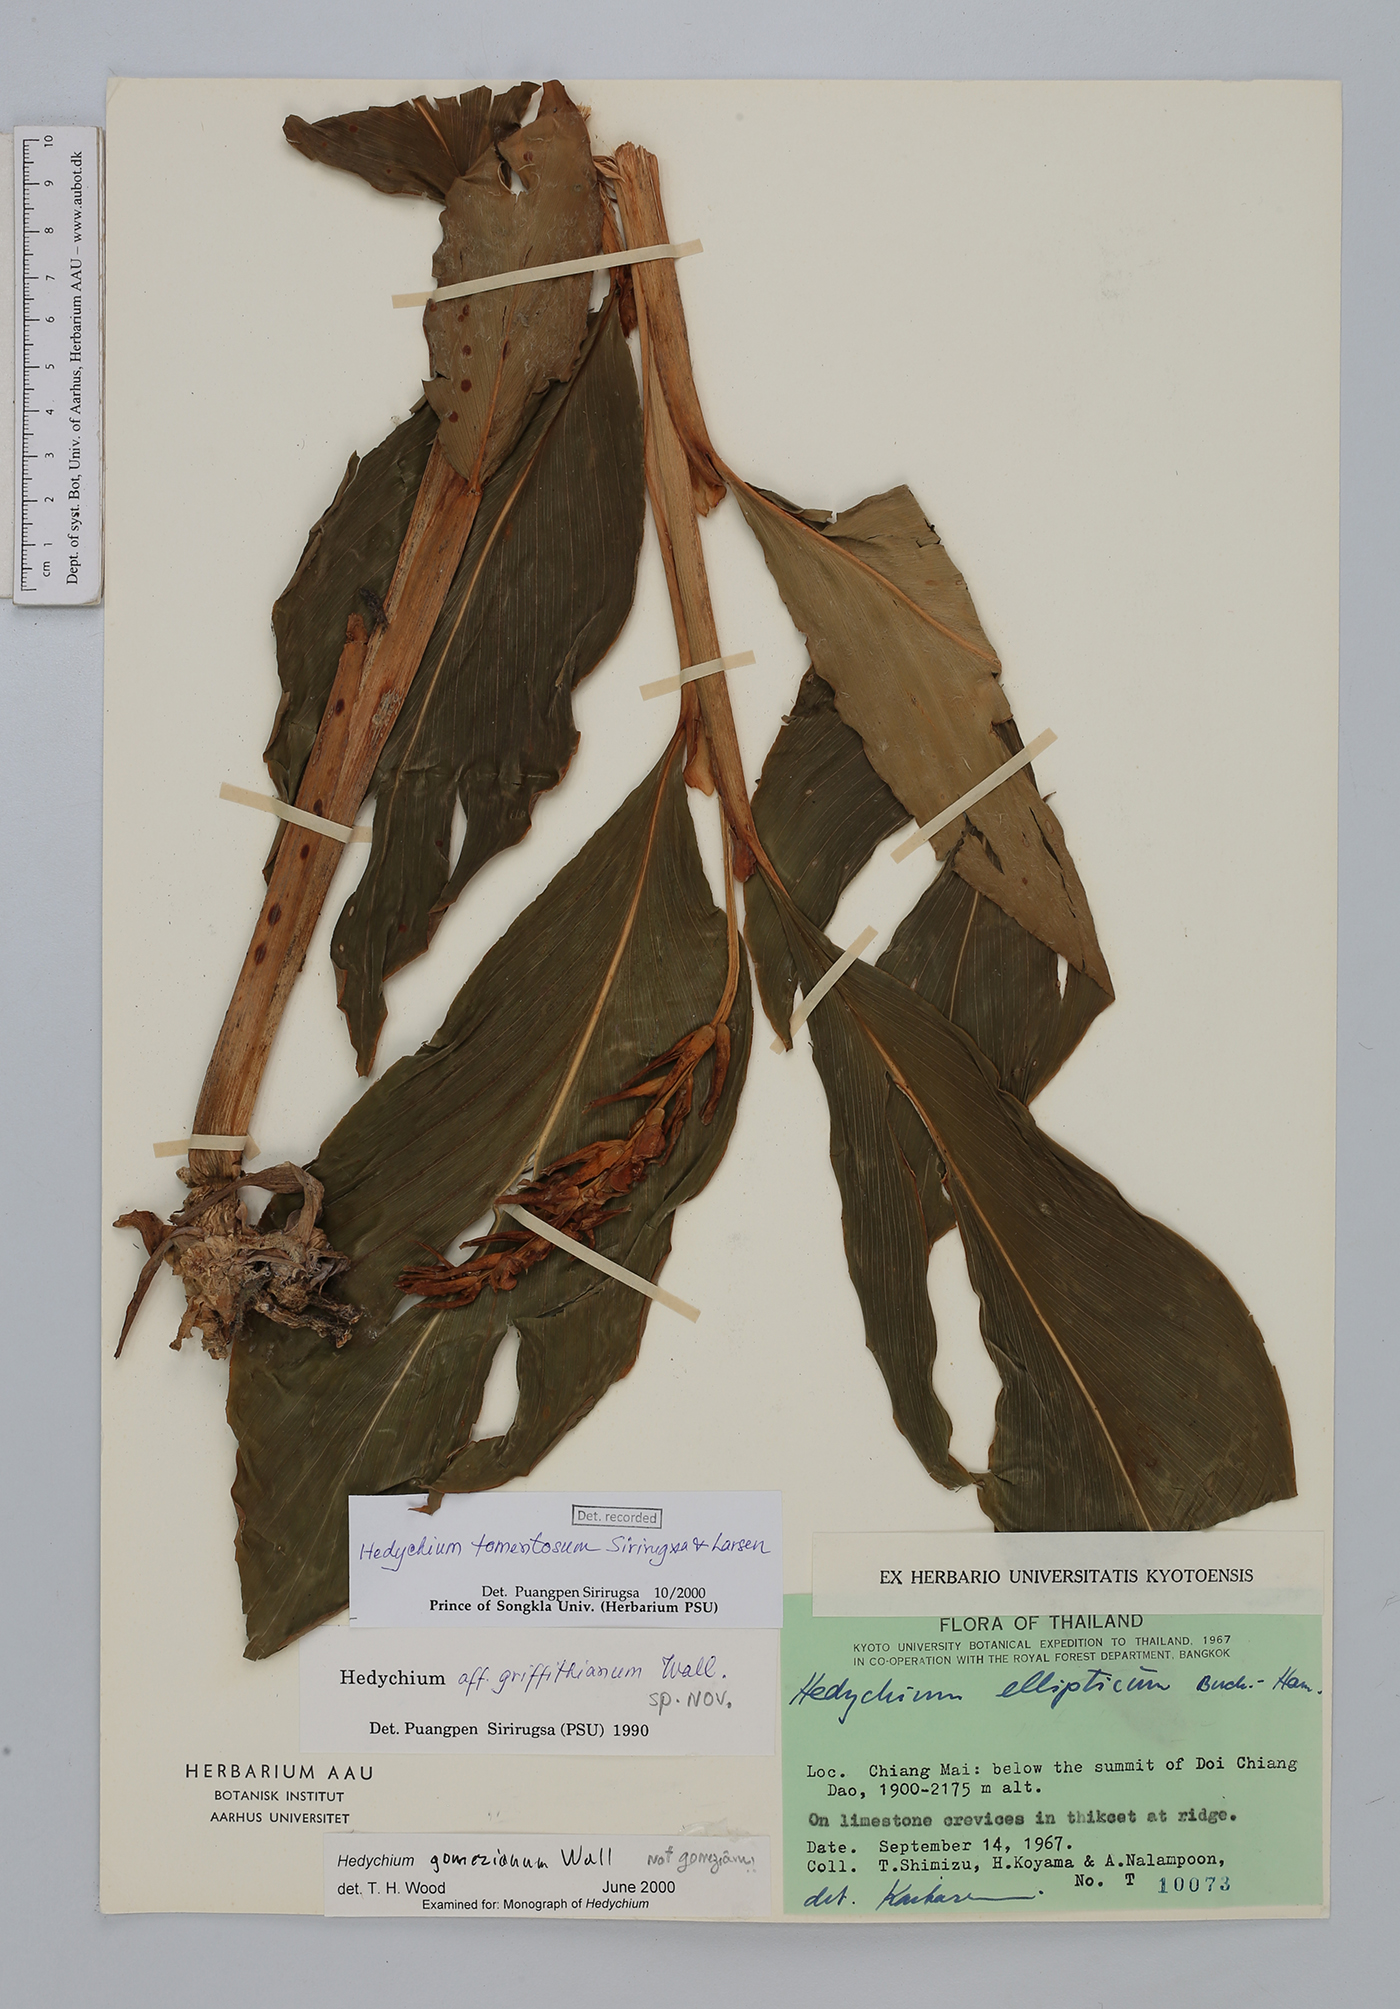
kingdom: Plantae
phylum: Tracheophyta
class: Liliopsida
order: Zingiberales
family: Zingiberaceae
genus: Hedychium
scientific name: Hedychium tomentosum
